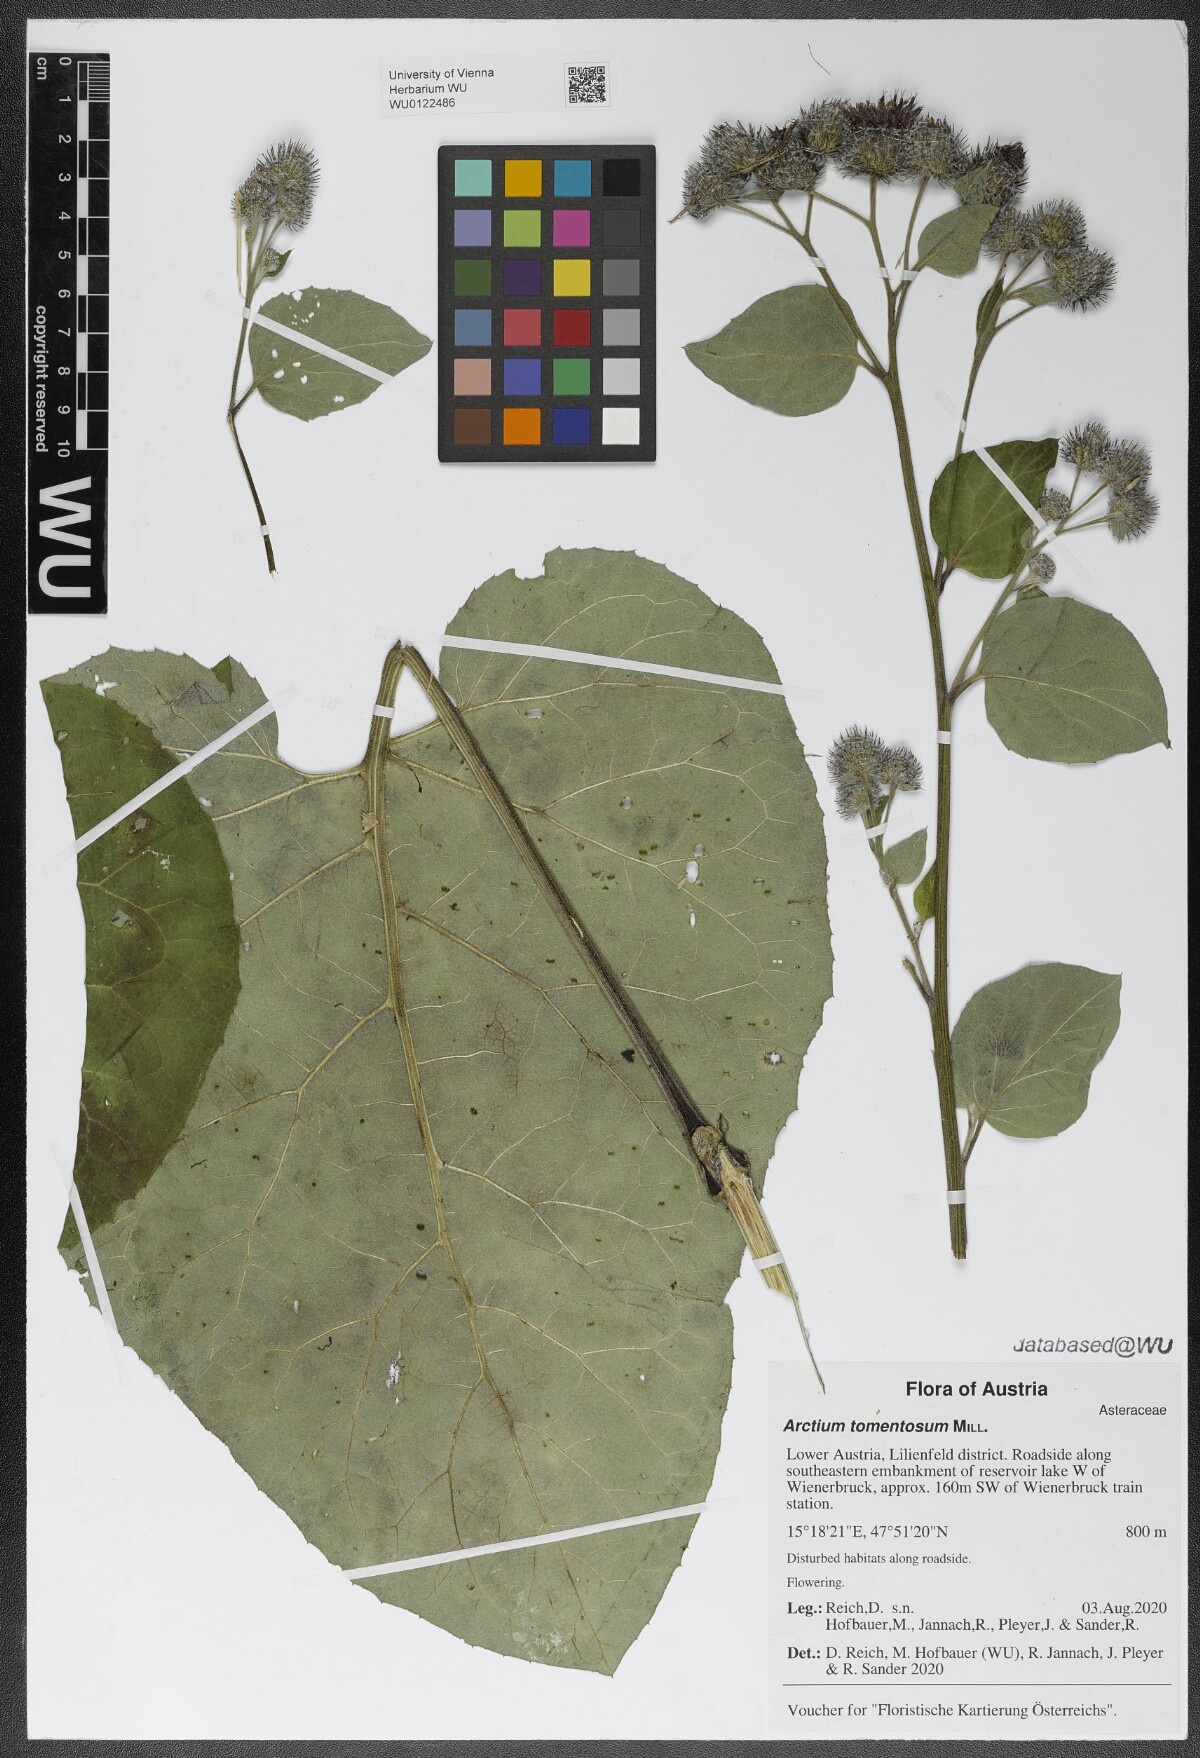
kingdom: Plantae
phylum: Tracheophyta
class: Magnoliopsida
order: Asterales
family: Asteraceae
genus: Arctium
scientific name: Arctium tomentosum
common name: Woolly burdock
